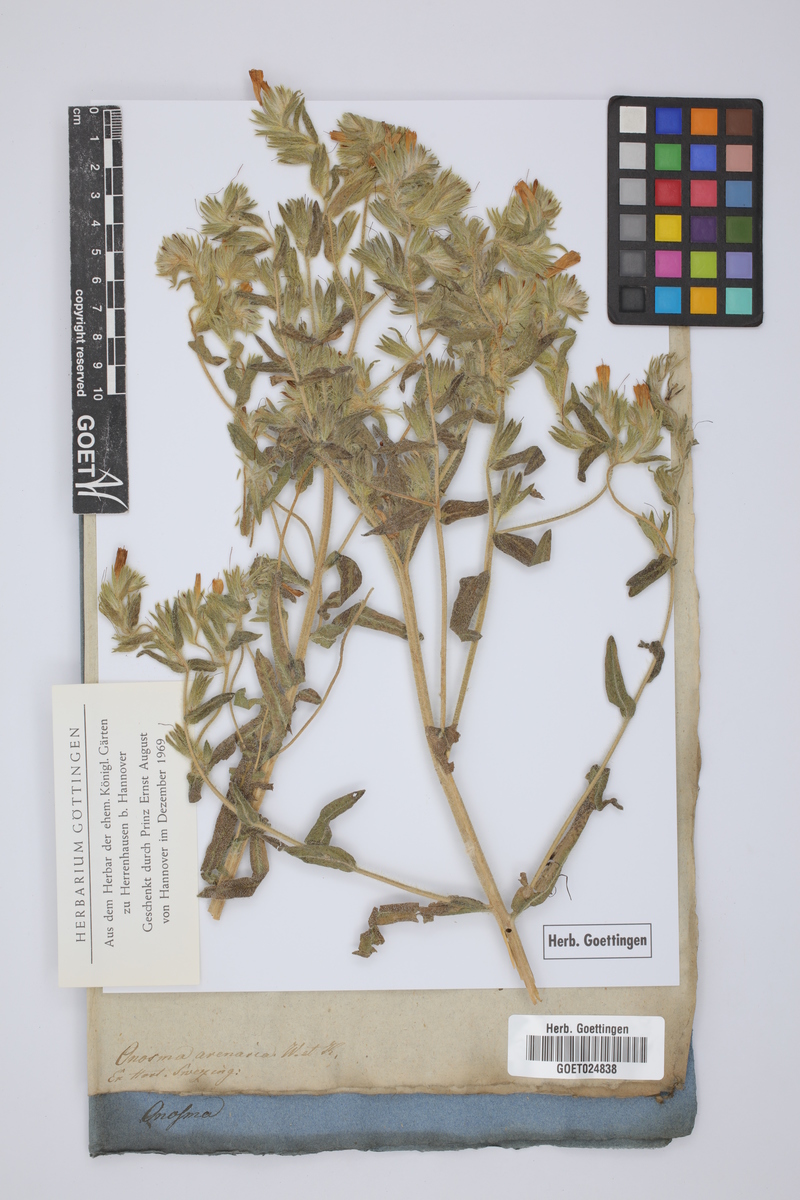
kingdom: Plantae
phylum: Tracheophyta
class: Magnoliopsida
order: Boraginales
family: Boraginaceae
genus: Onosma
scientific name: Onosma arenaria
